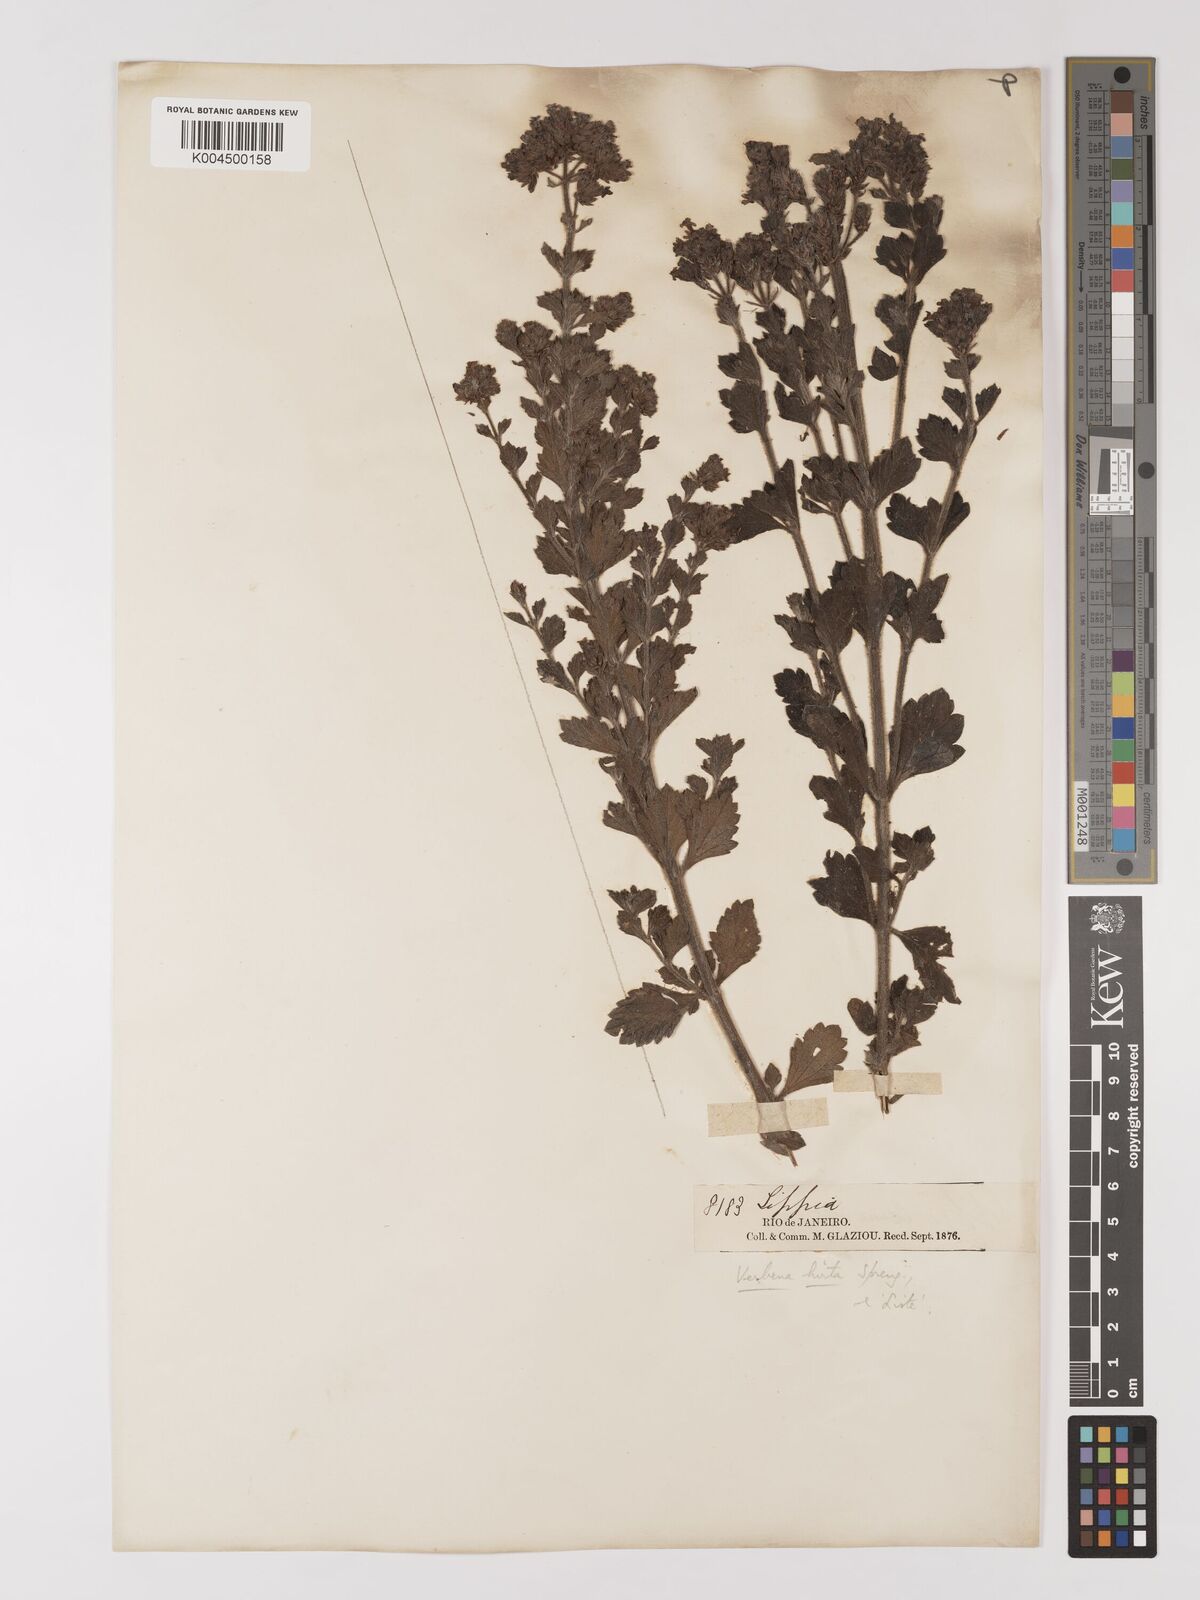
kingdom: Plantae
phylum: Tracheophyta
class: Magnoliopsida
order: Lamiales
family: Verbenaceae
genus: Verbena
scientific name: Verbena hirta
